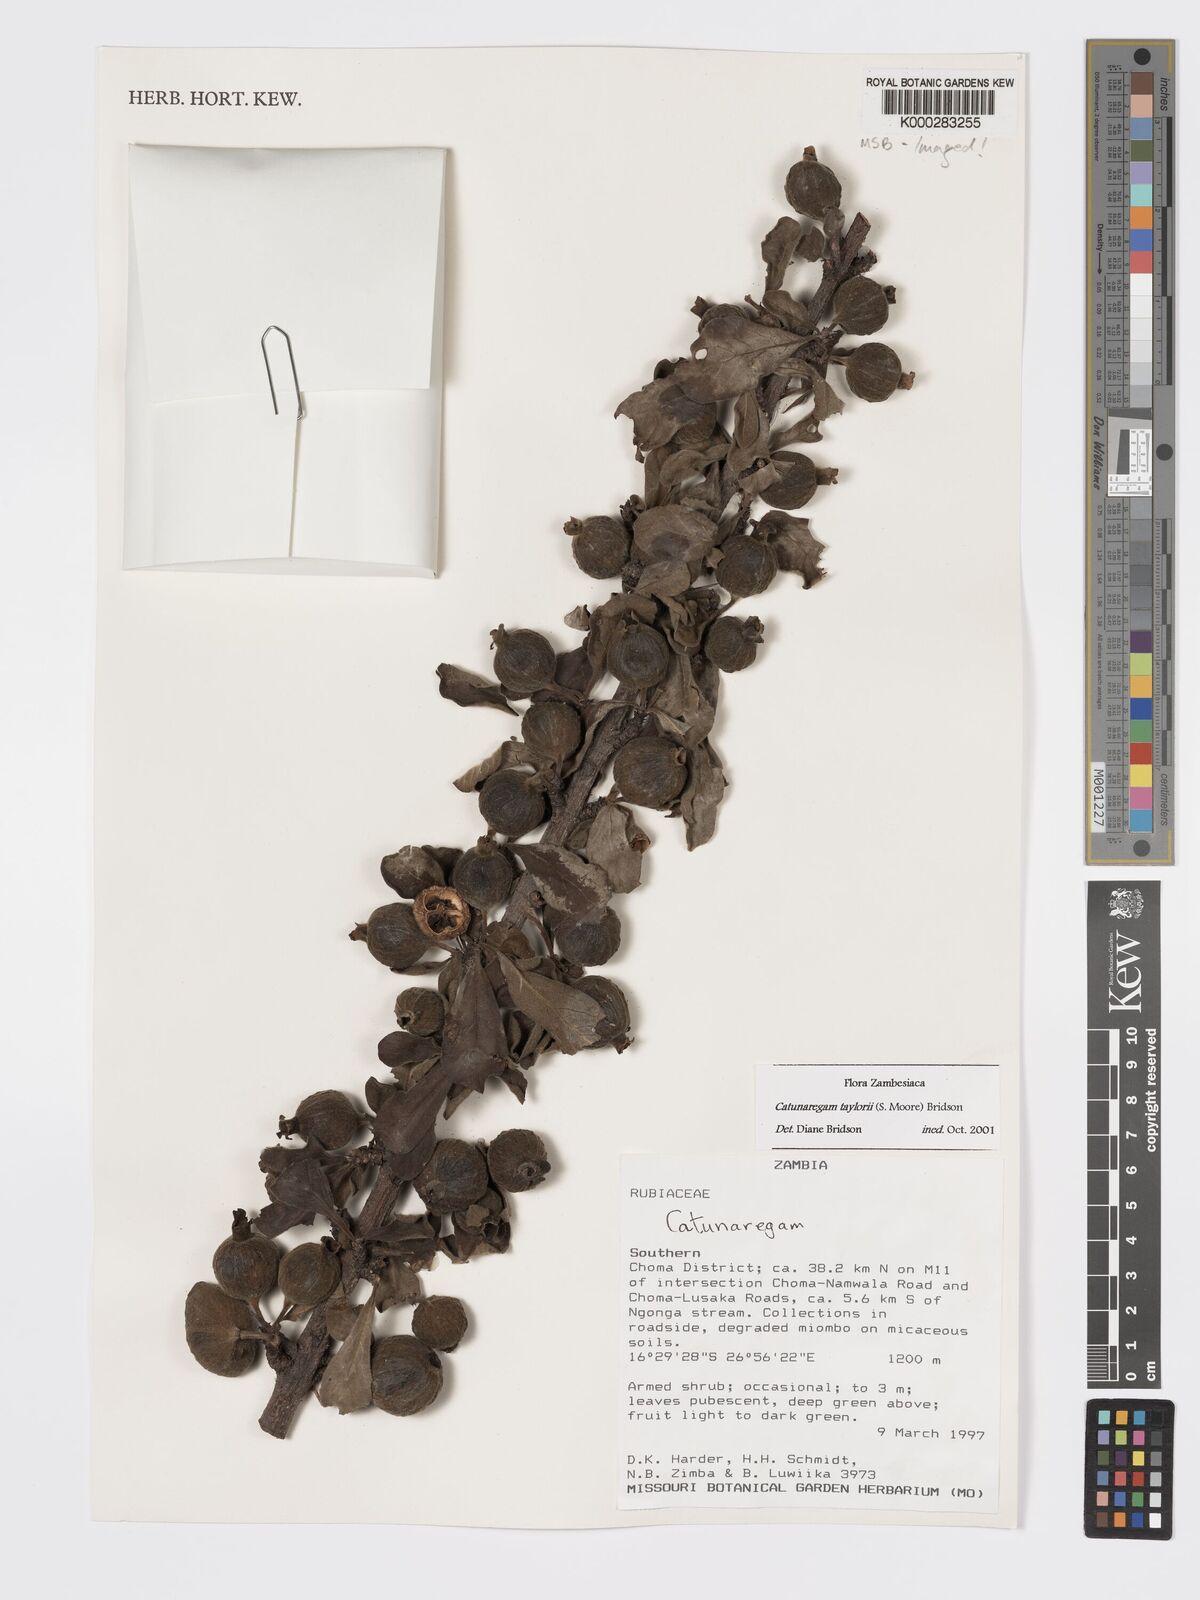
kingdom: Plantae
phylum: Tracheophyta
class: Magnoliopsida
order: Gentianales
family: Rubiaceae
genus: Catunaregam
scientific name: Catunaregam taylorii
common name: Miombo bone-apple
